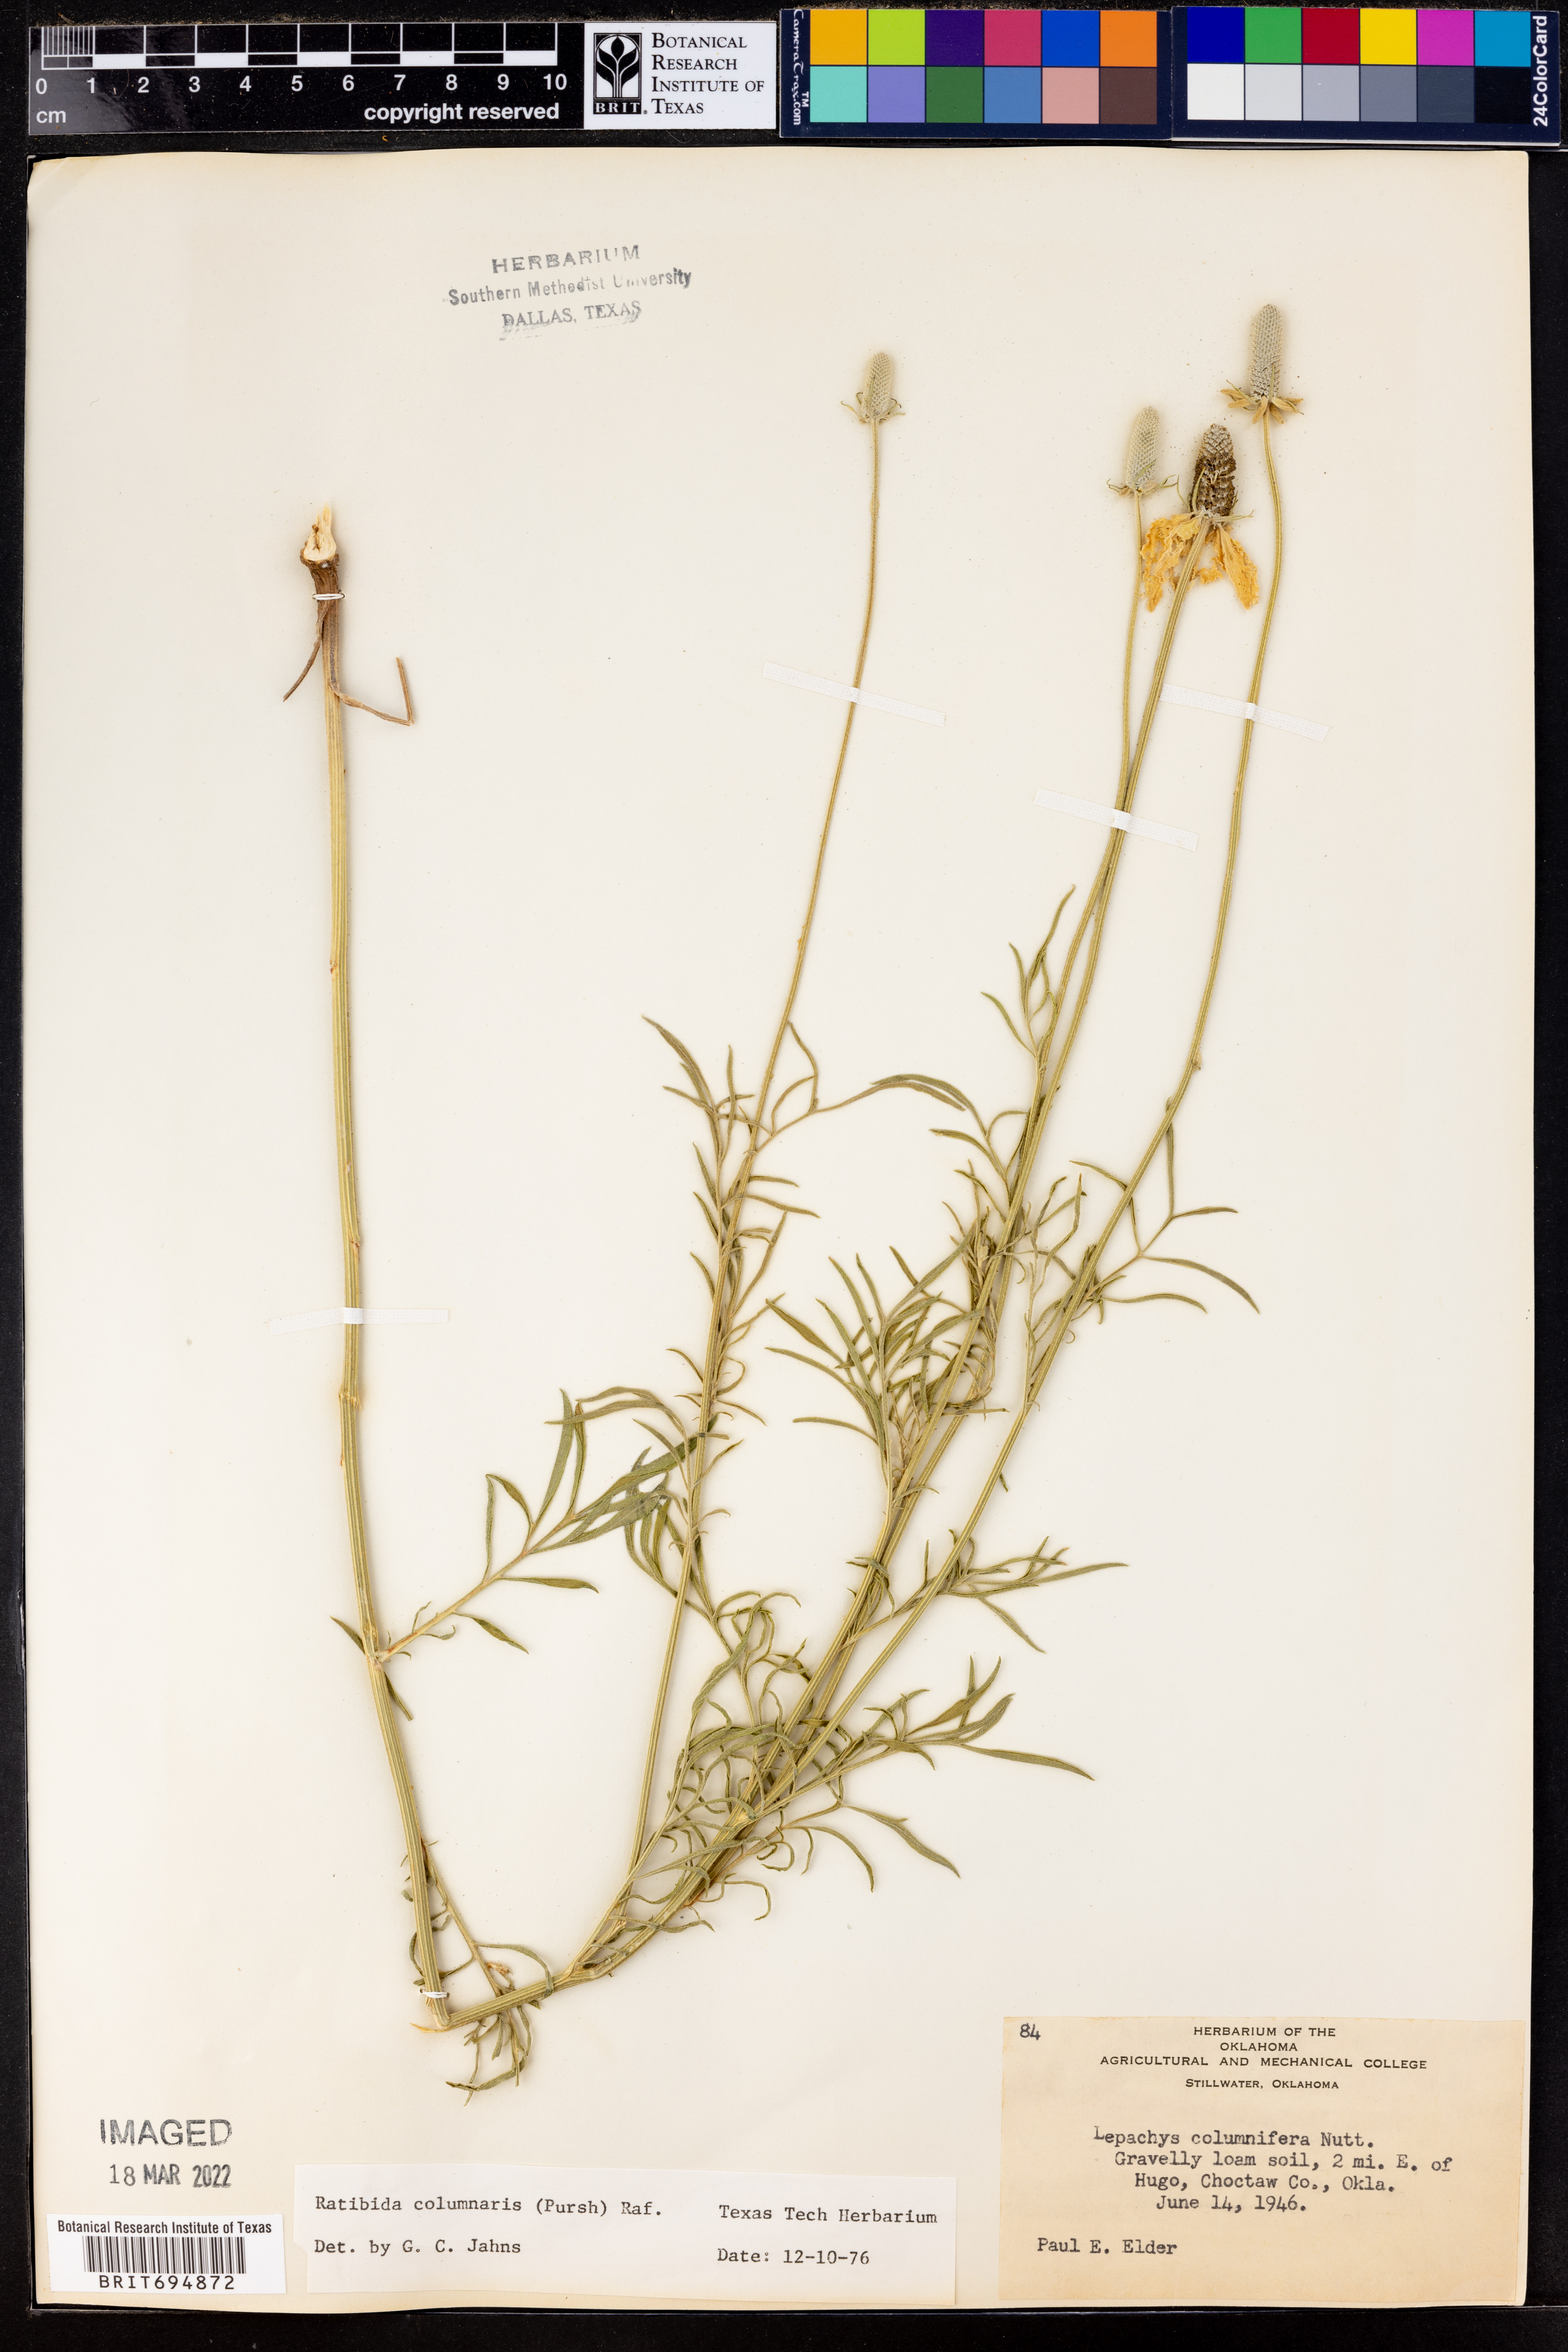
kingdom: Plantae
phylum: Tracheophyta
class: Magnoliopsida
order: Asterales
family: Asteraceae
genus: Ratibida
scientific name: Ratibida columnifera
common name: Prairie coneflower
